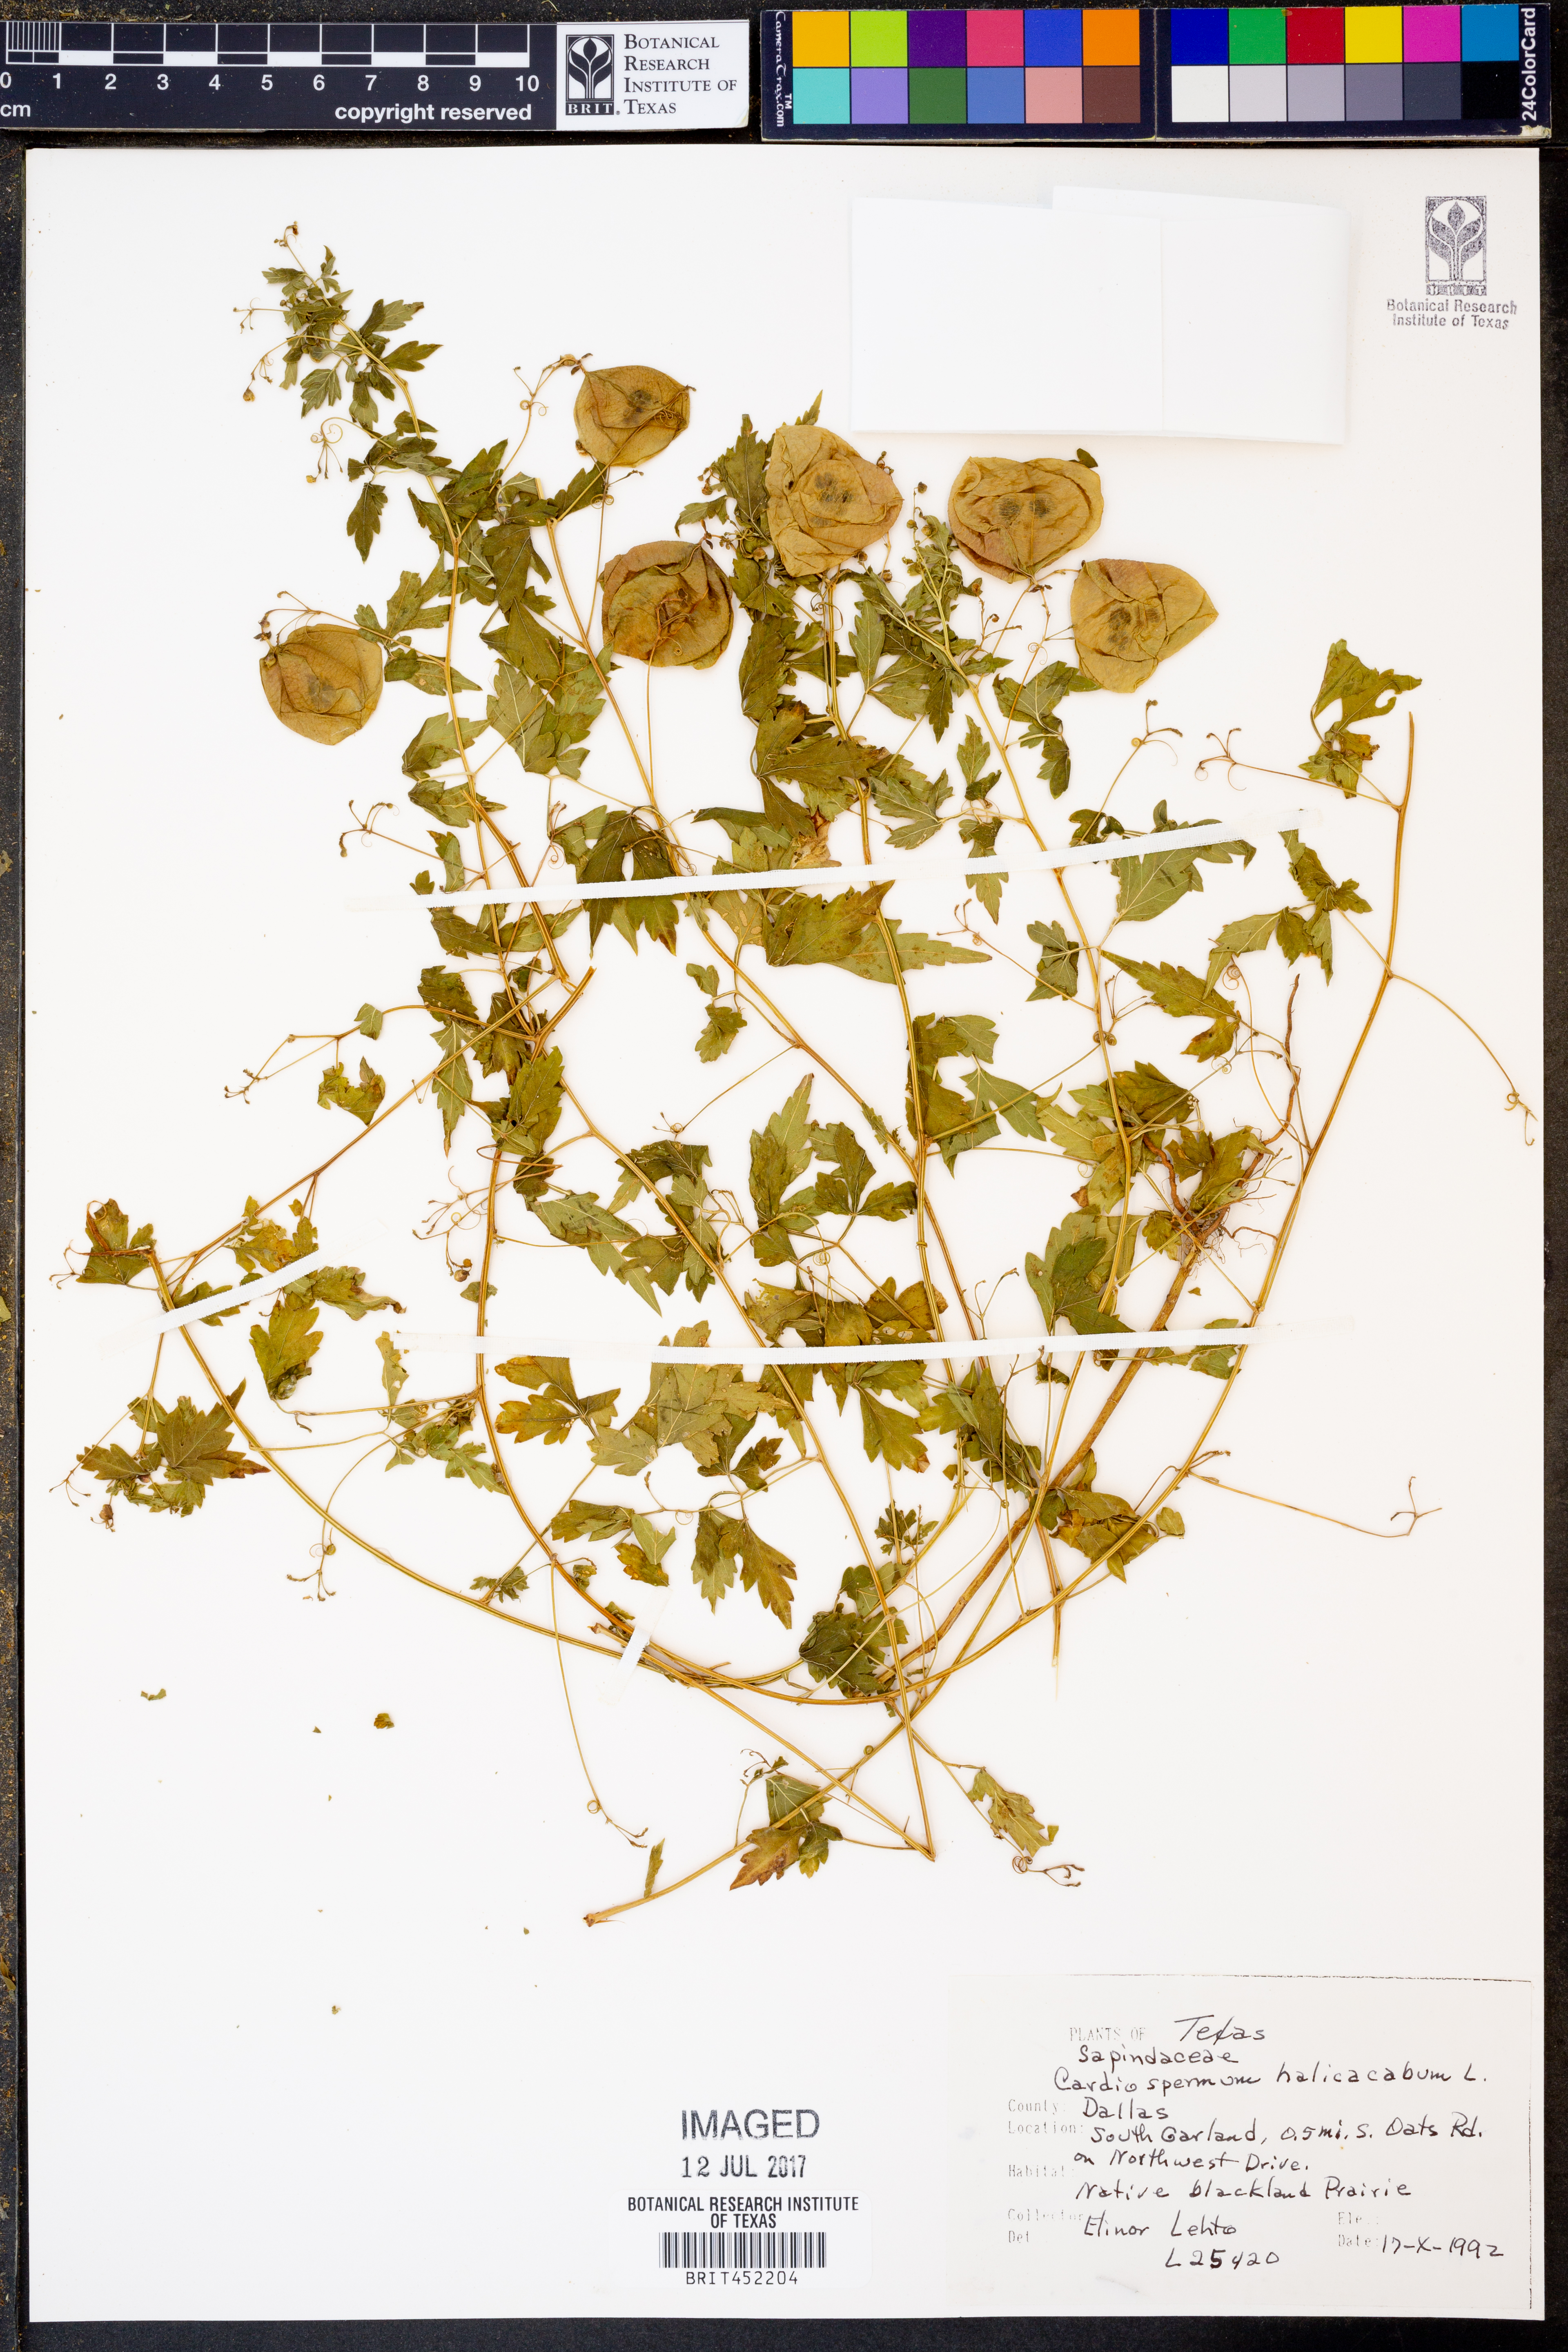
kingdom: Plantae
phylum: Tracheophyta
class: Magnoliopsida
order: Sapindales
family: Sapindaceae
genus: Cardiospermum
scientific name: Cardiospermum halicacabum
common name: Balloon vine
